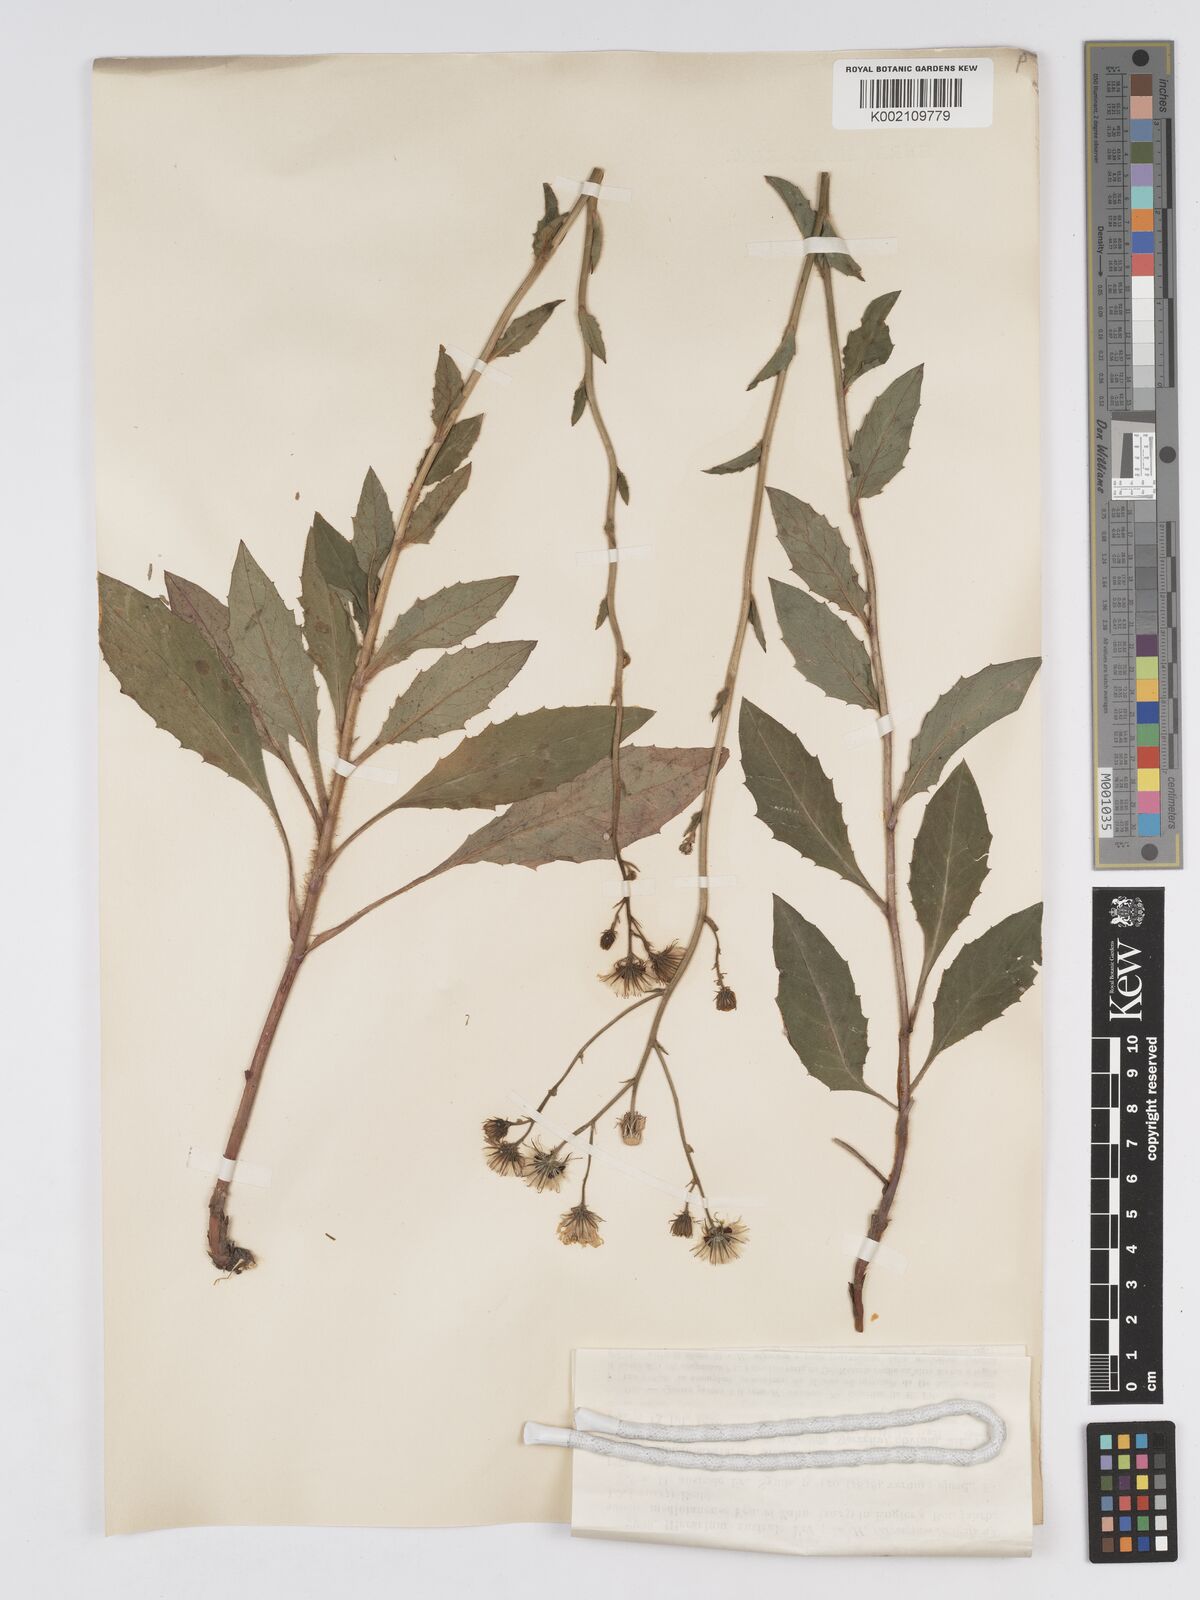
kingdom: Plantae
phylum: Tracheophyta
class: Magnoliopsida
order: Asterales
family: Asteraceae
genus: Hieracium
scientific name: Hieracium mediolanense
